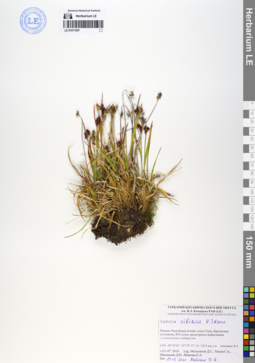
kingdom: Plantae
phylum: Tracheophyta
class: Liliopsida
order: Poales
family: Juncaceae
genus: Luzula
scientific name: Luzula multiflora
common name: Heath wood-rush
